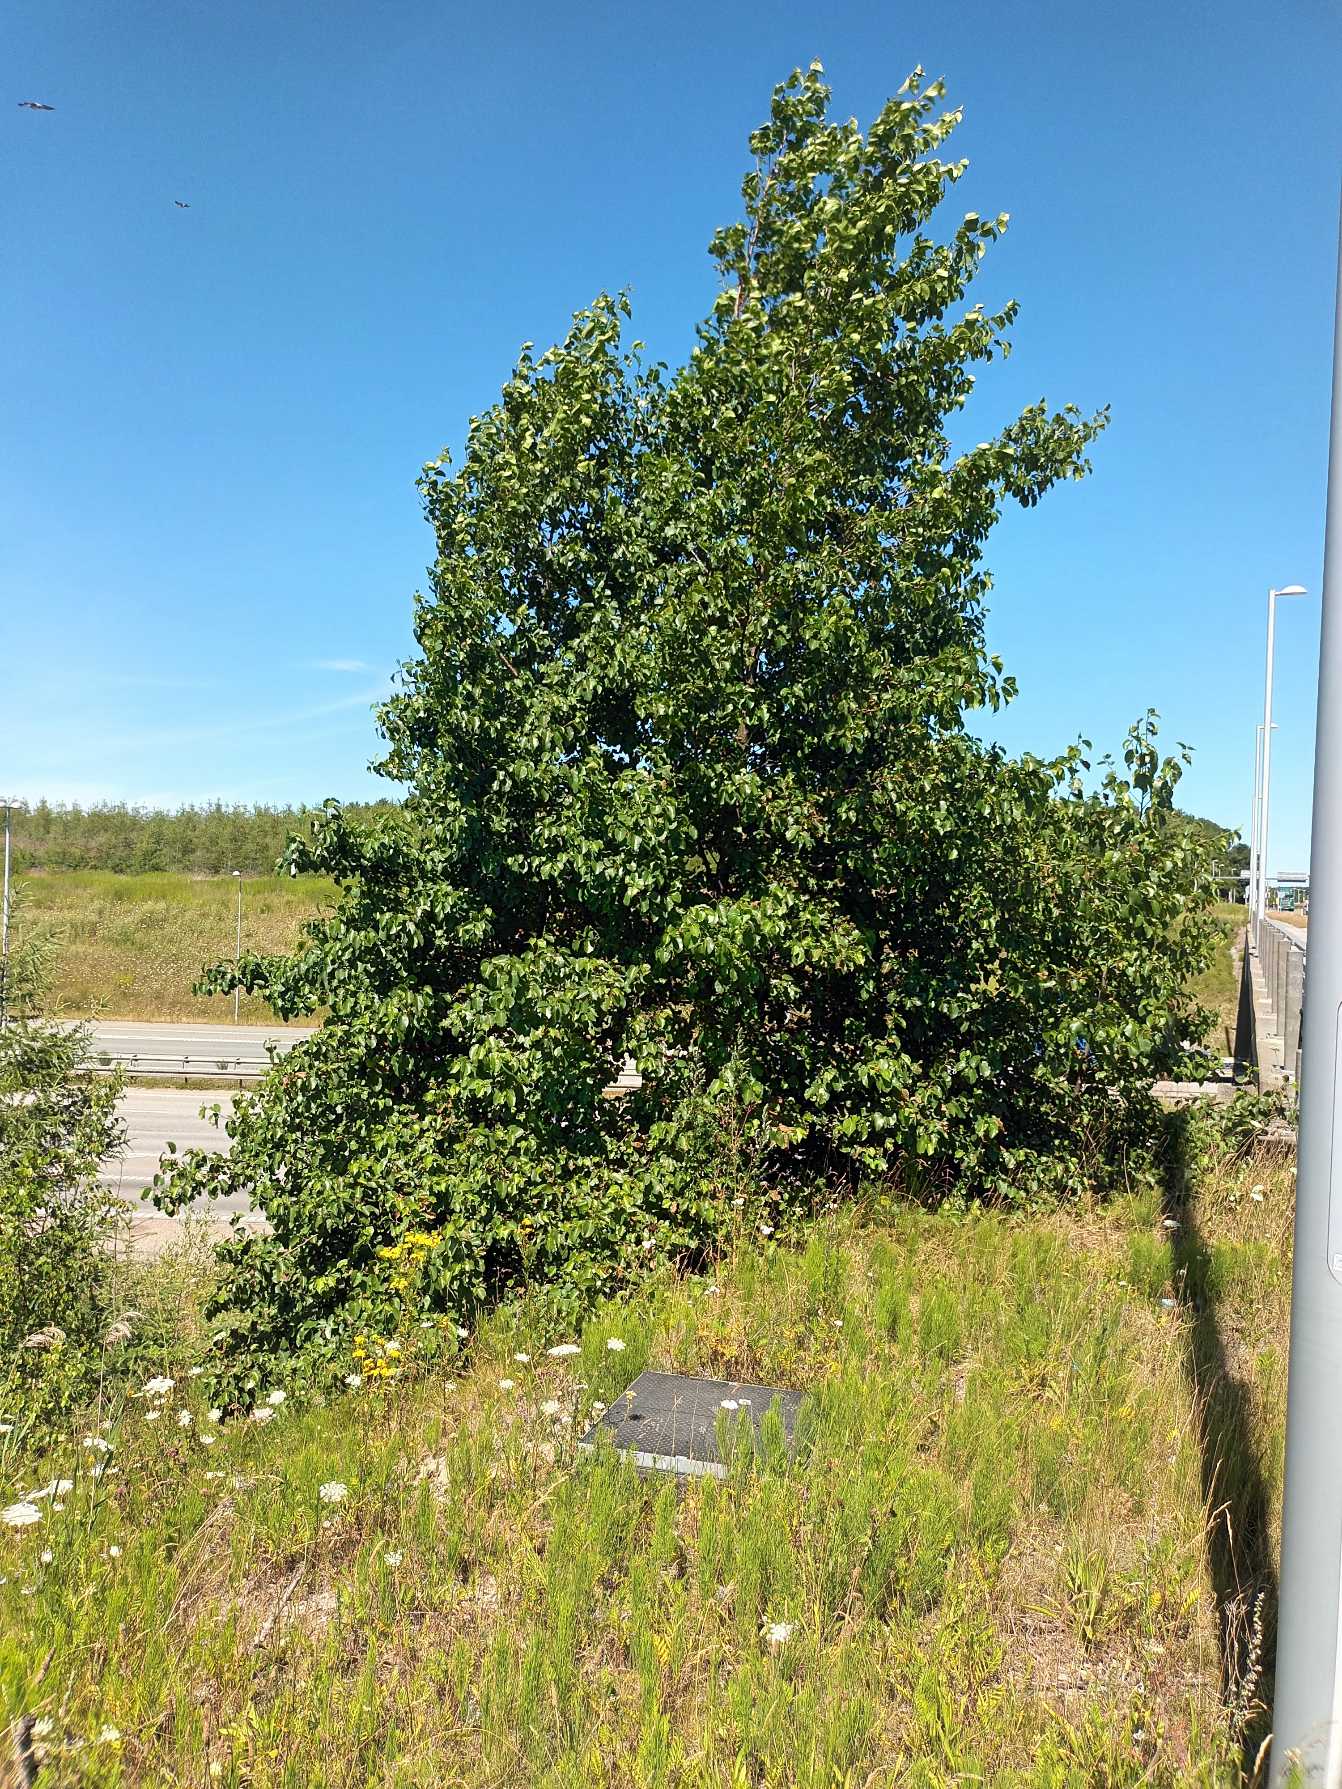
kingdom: Plantae
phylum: Tracheophyta
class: Magnoliopsida
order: Fagales
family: Betulaceae
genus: Alnus
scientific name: Alnus cordata
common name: Hjertebladet el
